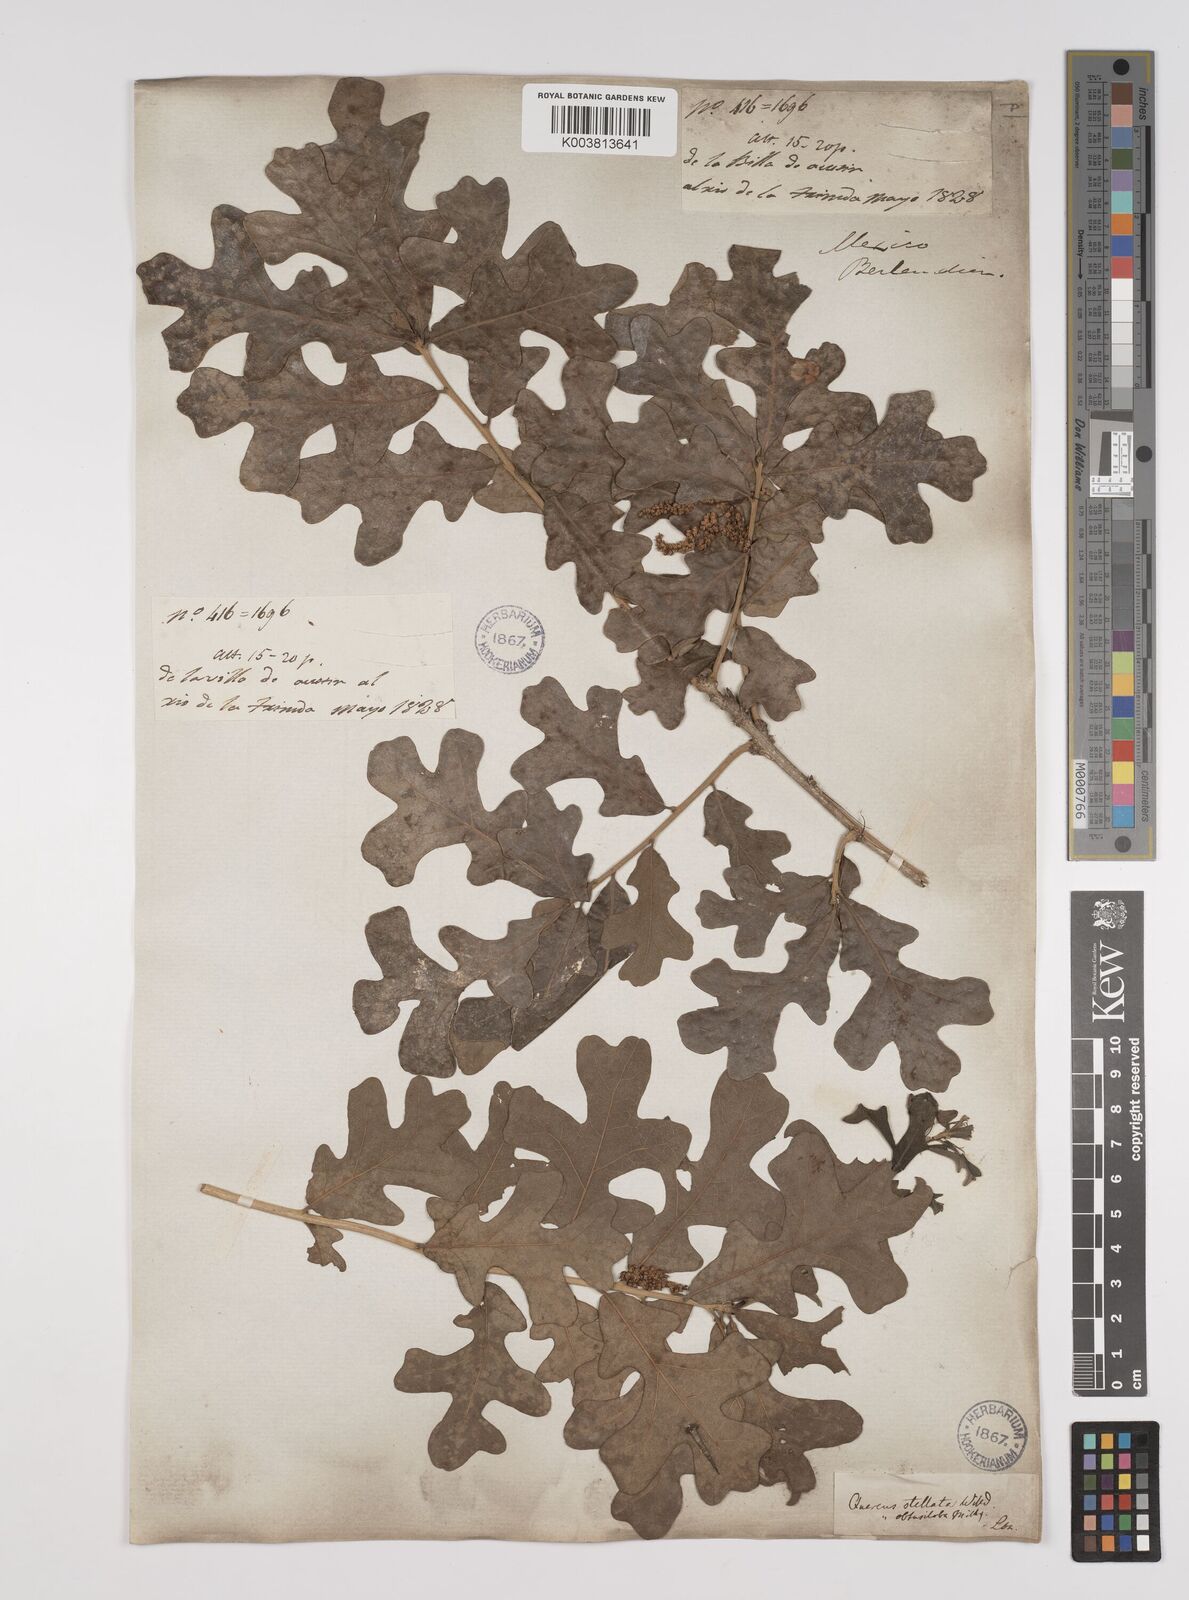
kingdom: Plantae
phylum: Tracheophyta
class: Magnoliopsida
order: Fagales
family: Fagaceae
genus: Quercus
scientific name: Quercus stellata
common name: Post oak
